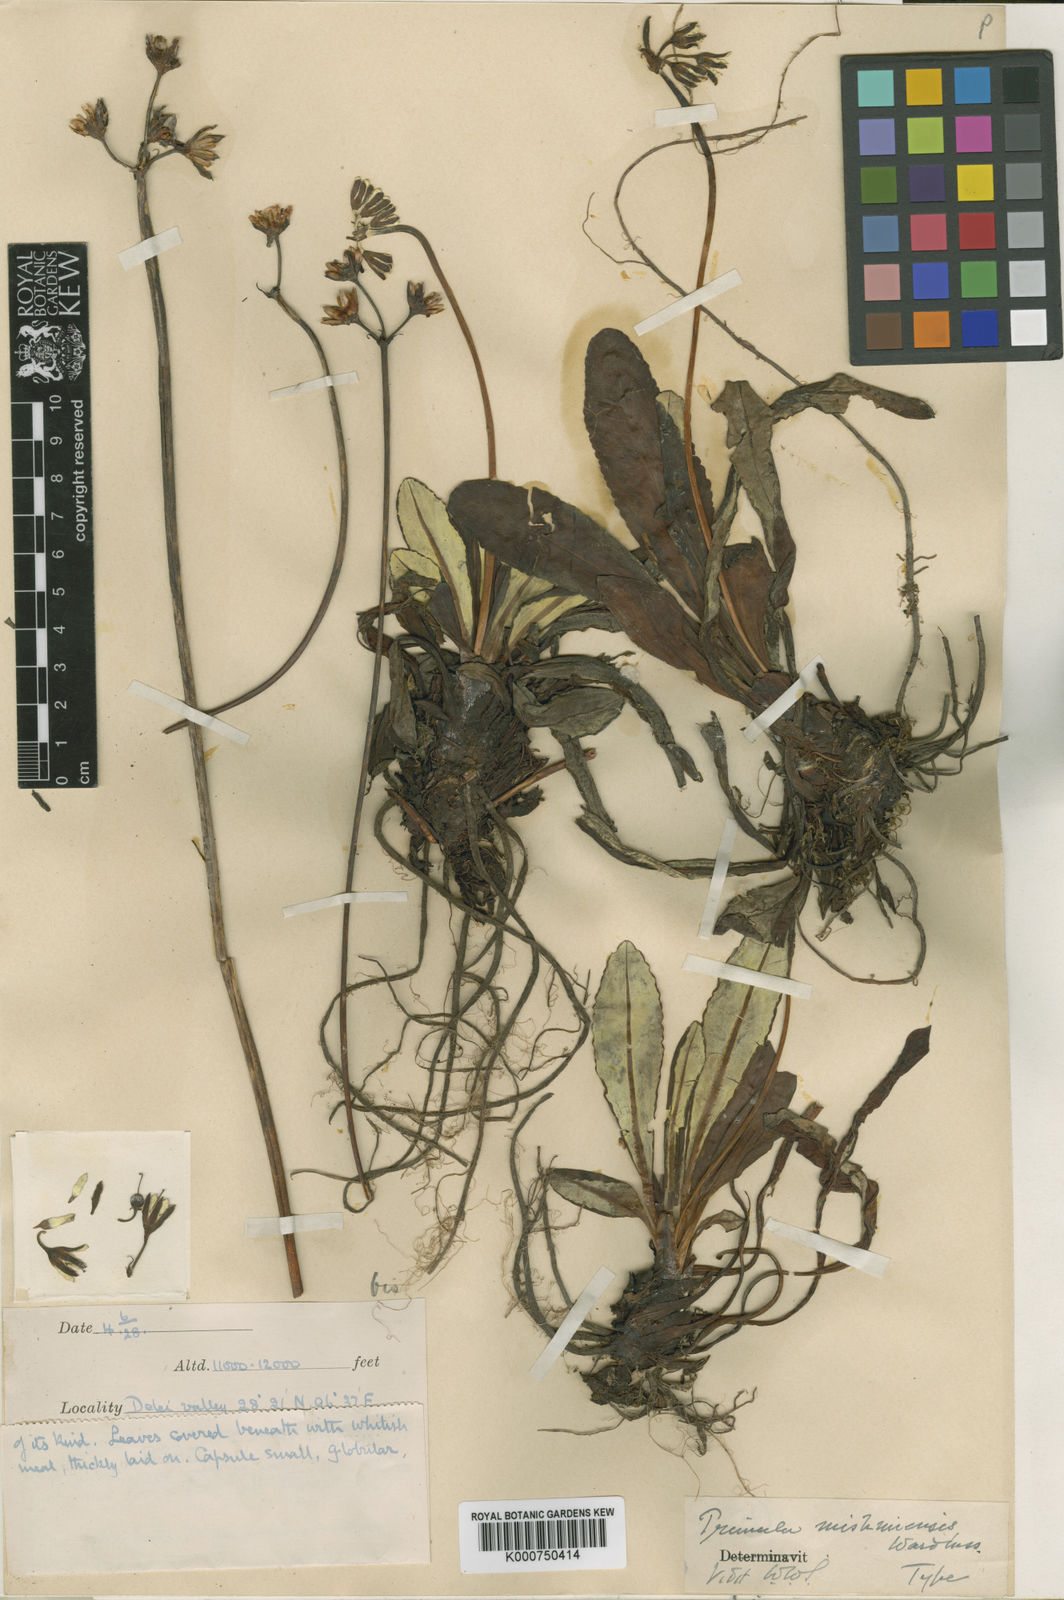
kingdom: Plantae
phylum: Tracheophyta
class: Magnoliopsida
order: Ericales
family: Primulaceae
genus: Primula
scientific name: Primula mishmiensis
